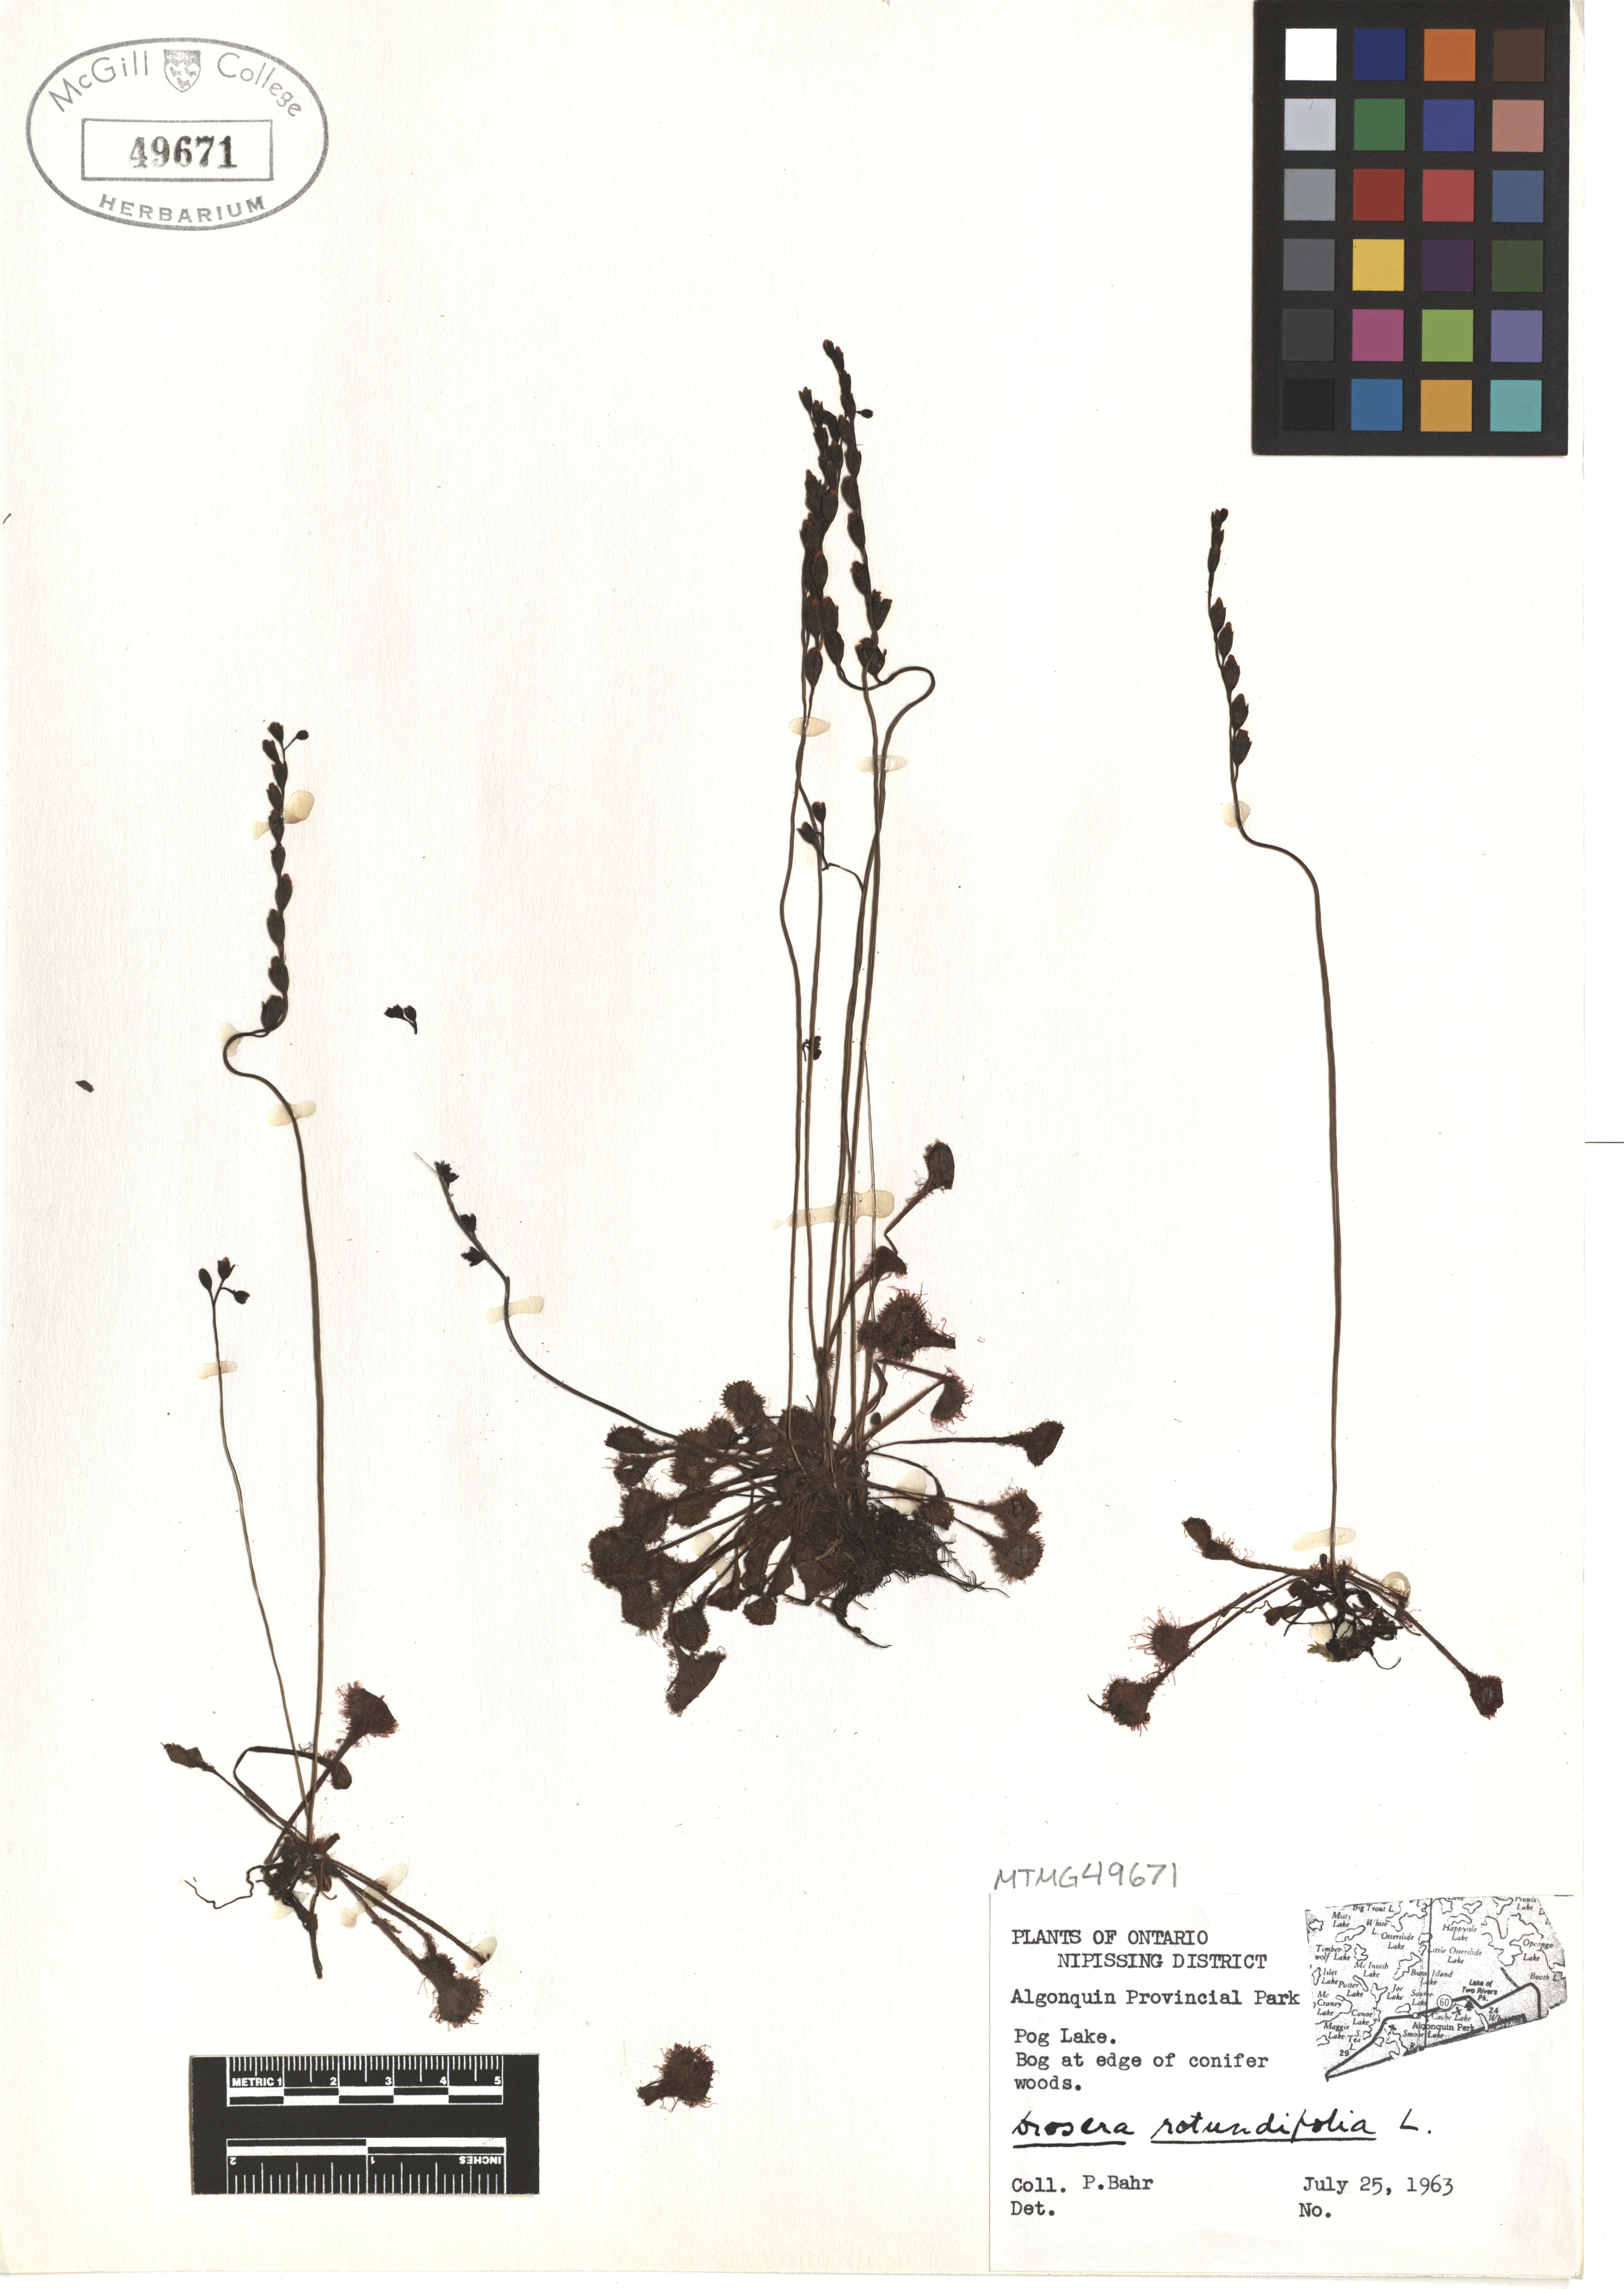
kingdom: Plantae
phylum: Tracheophyta
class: Magnoliopsida
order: Caryophyllales
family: Droseraceae
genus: Drosera
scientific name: Drosera rotundifolia
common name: Round-leaved sundew
